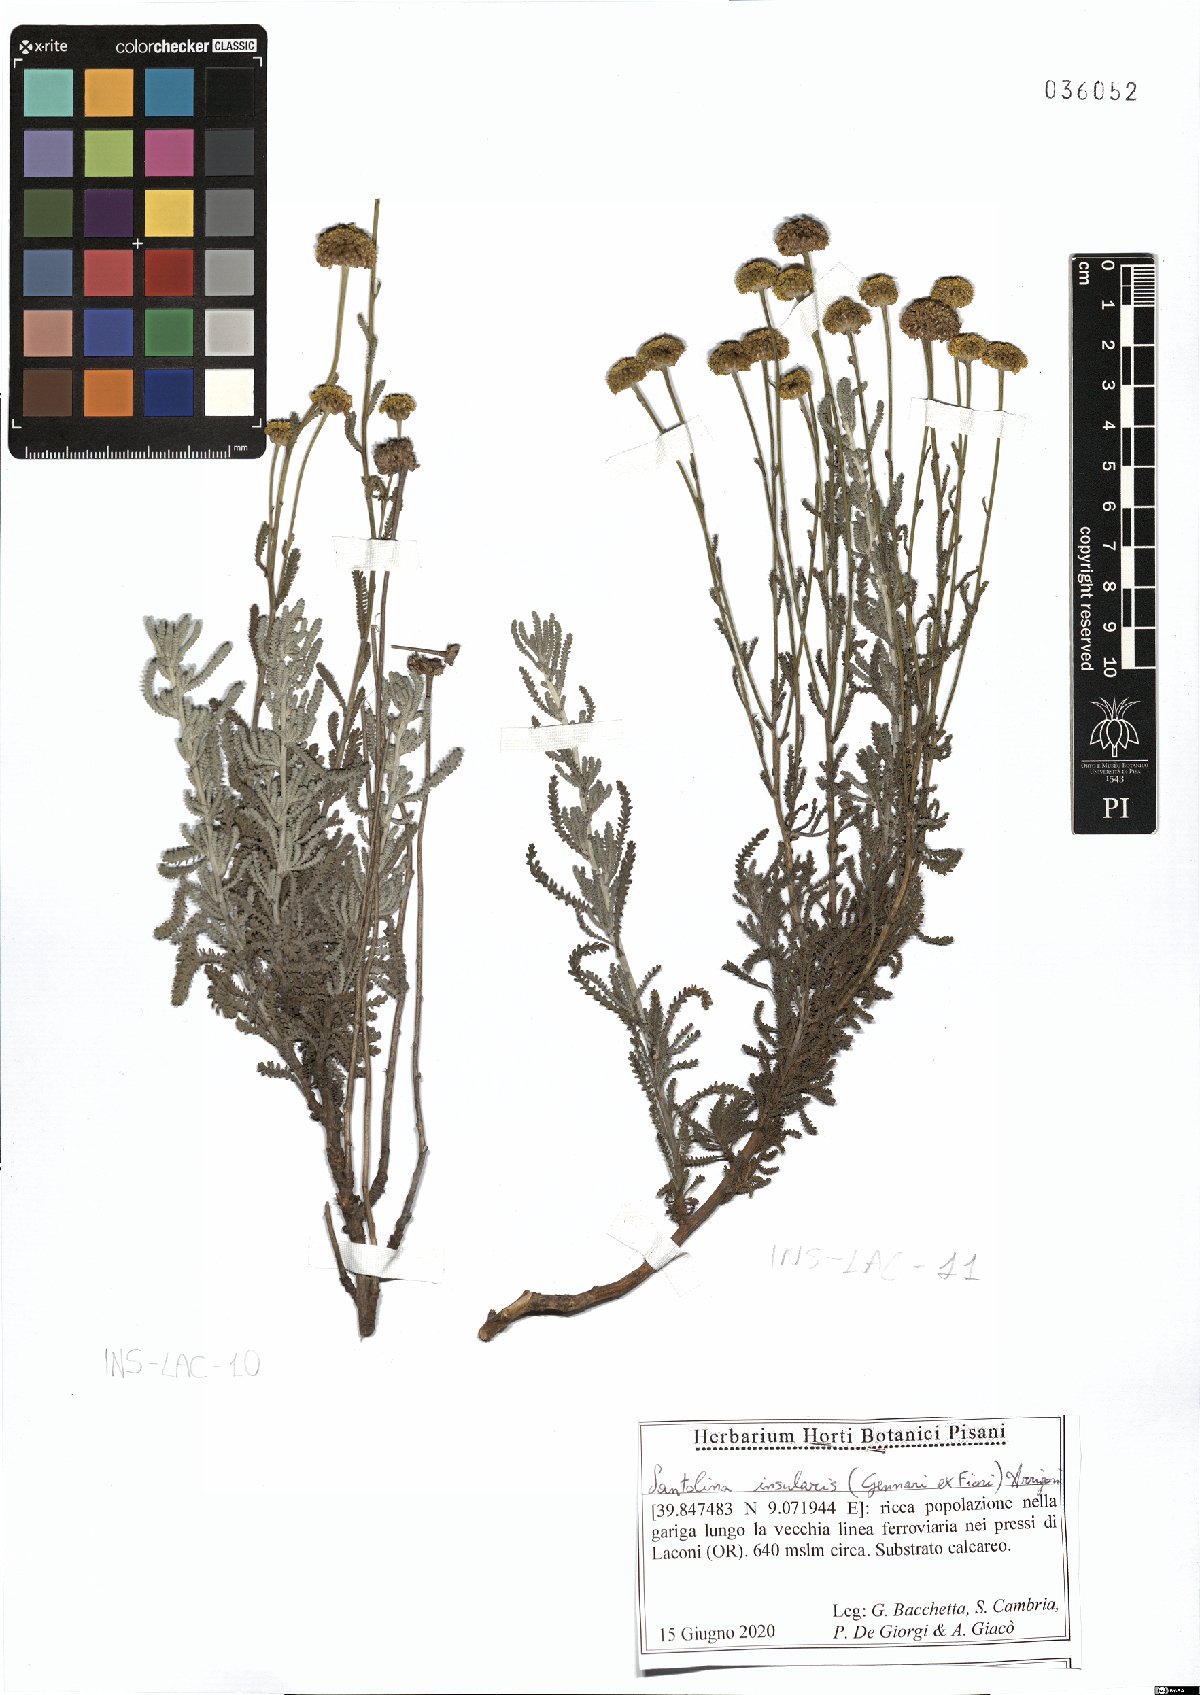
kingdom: Plantae
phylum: Tracheophyta
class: Magnoliopsida
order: Asterales
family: Asteraceae
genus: Santolina
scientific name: Santolina insularis
